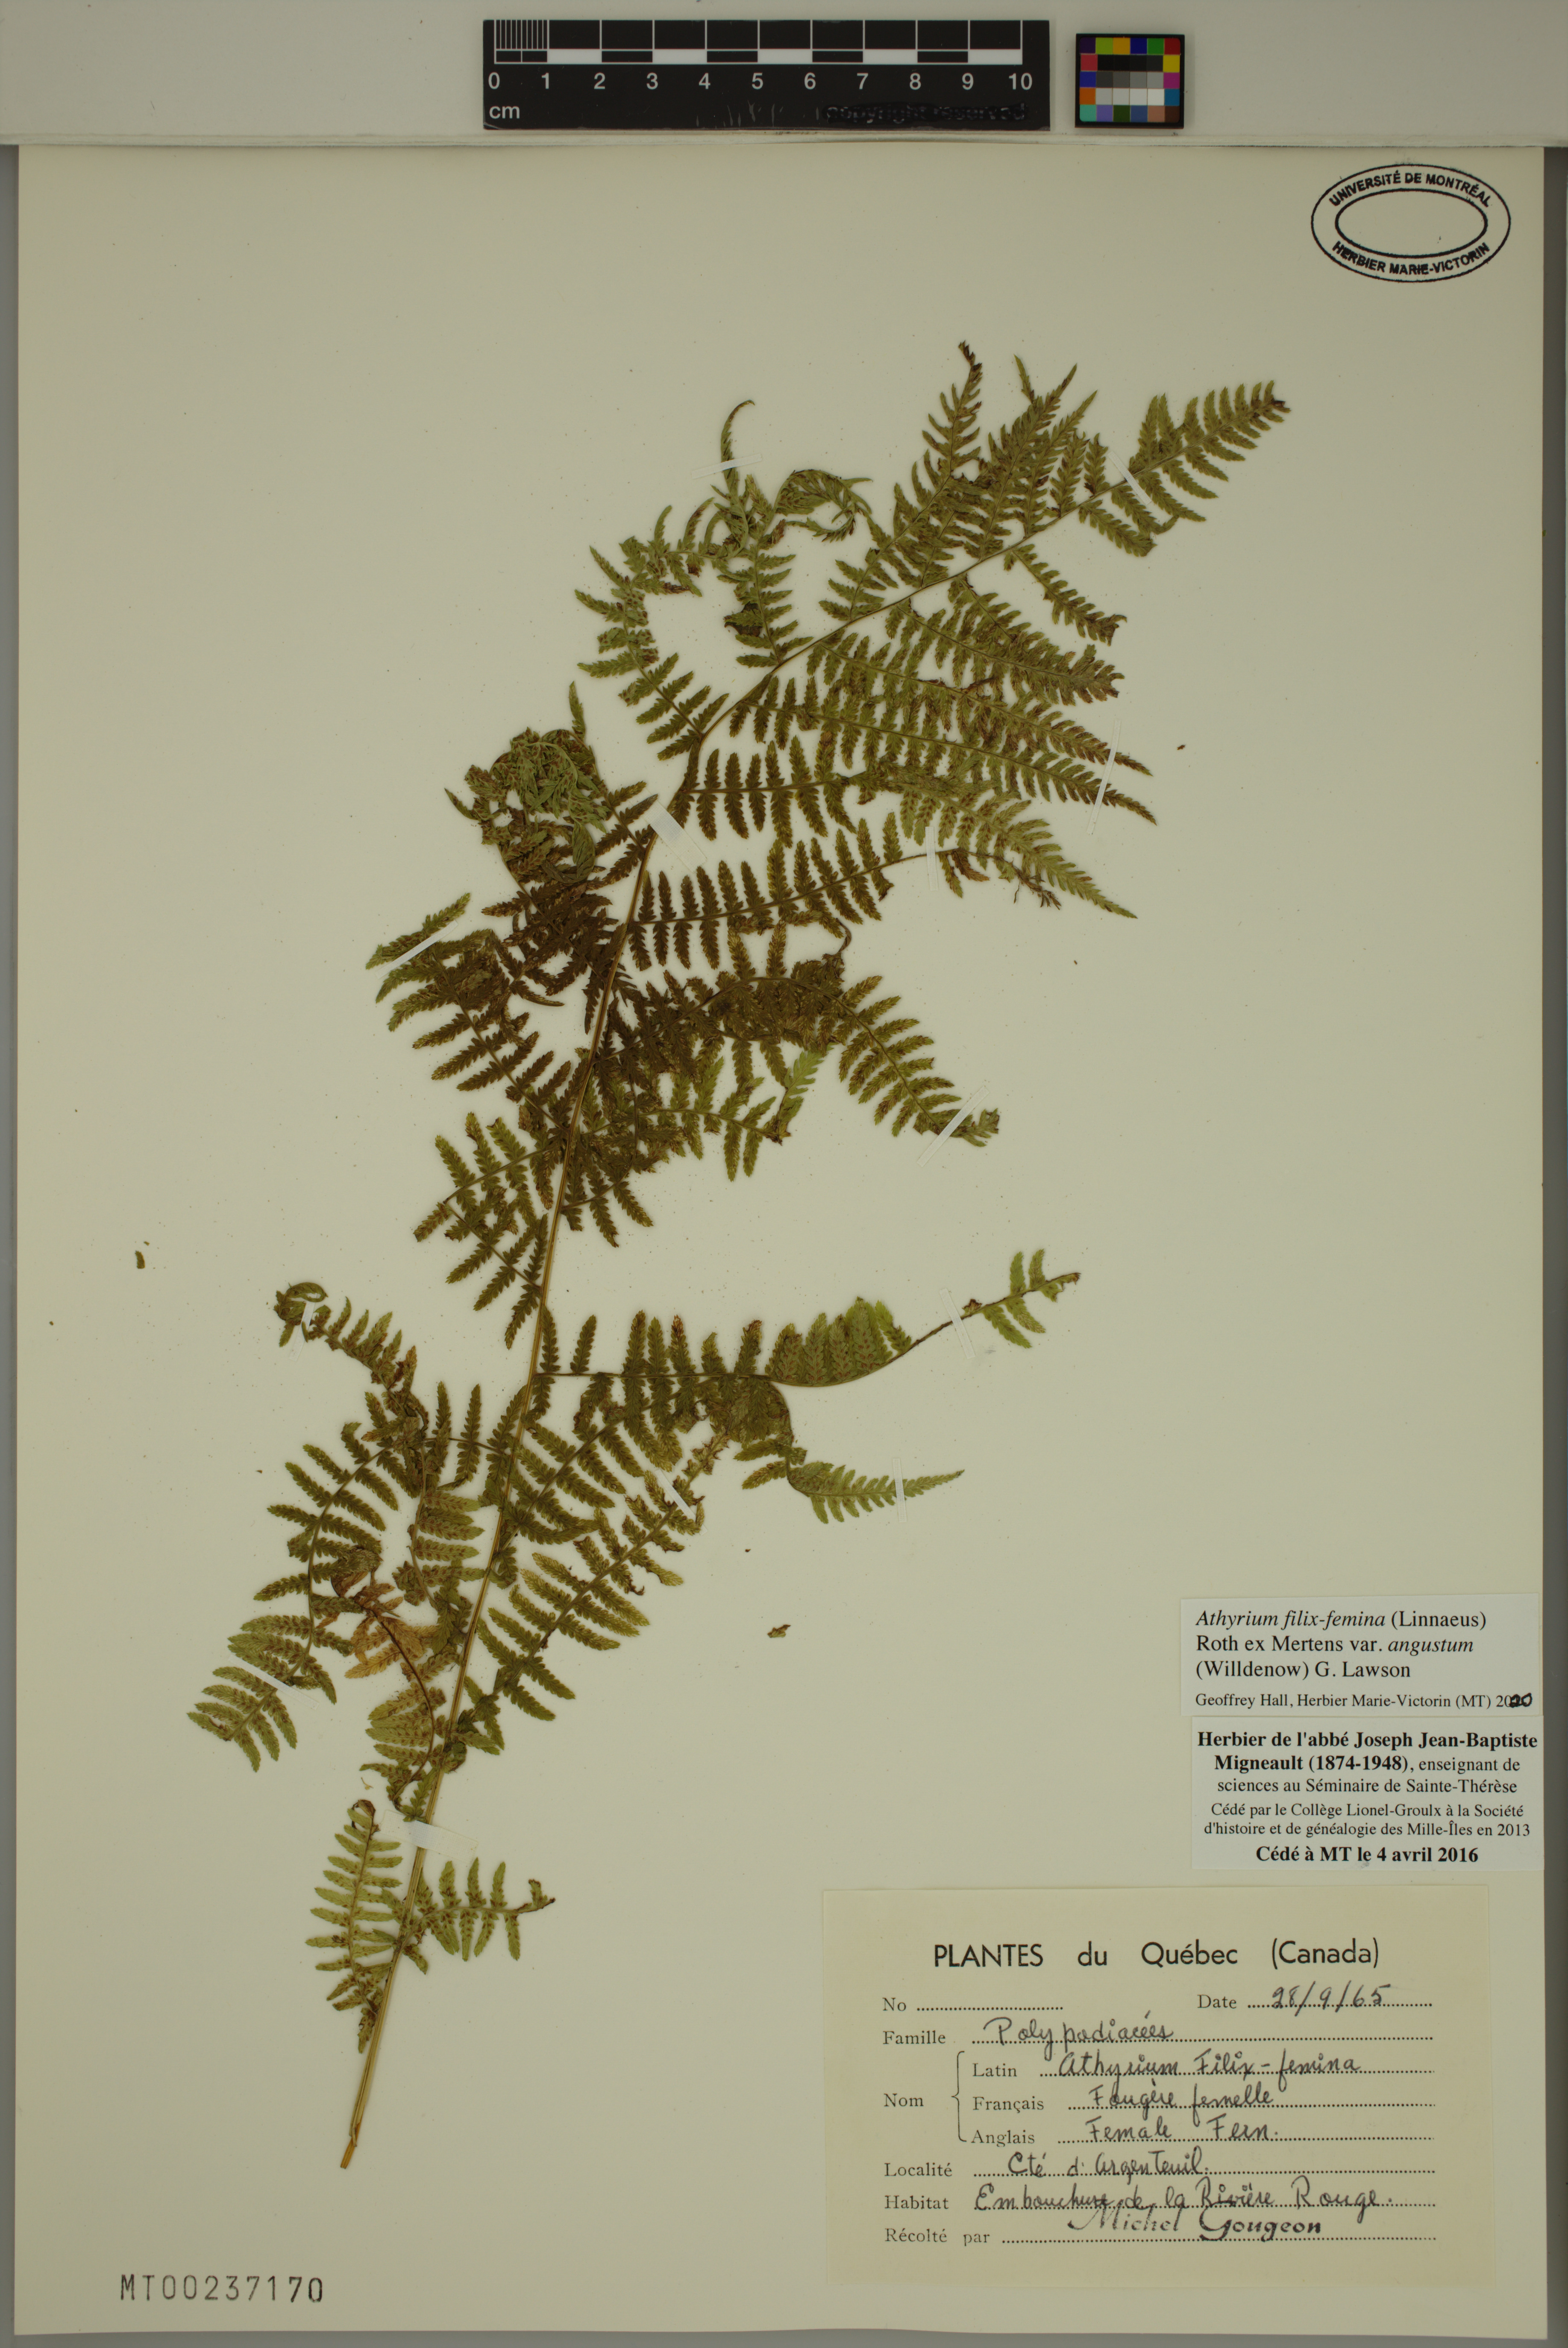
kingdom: Plantae
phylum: Tracheophyta
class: Polypodiopsida
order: Polypodiales
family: Athyriaceae
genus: Athyrium
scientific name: Athyrium angustum
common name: Northern lady fern
